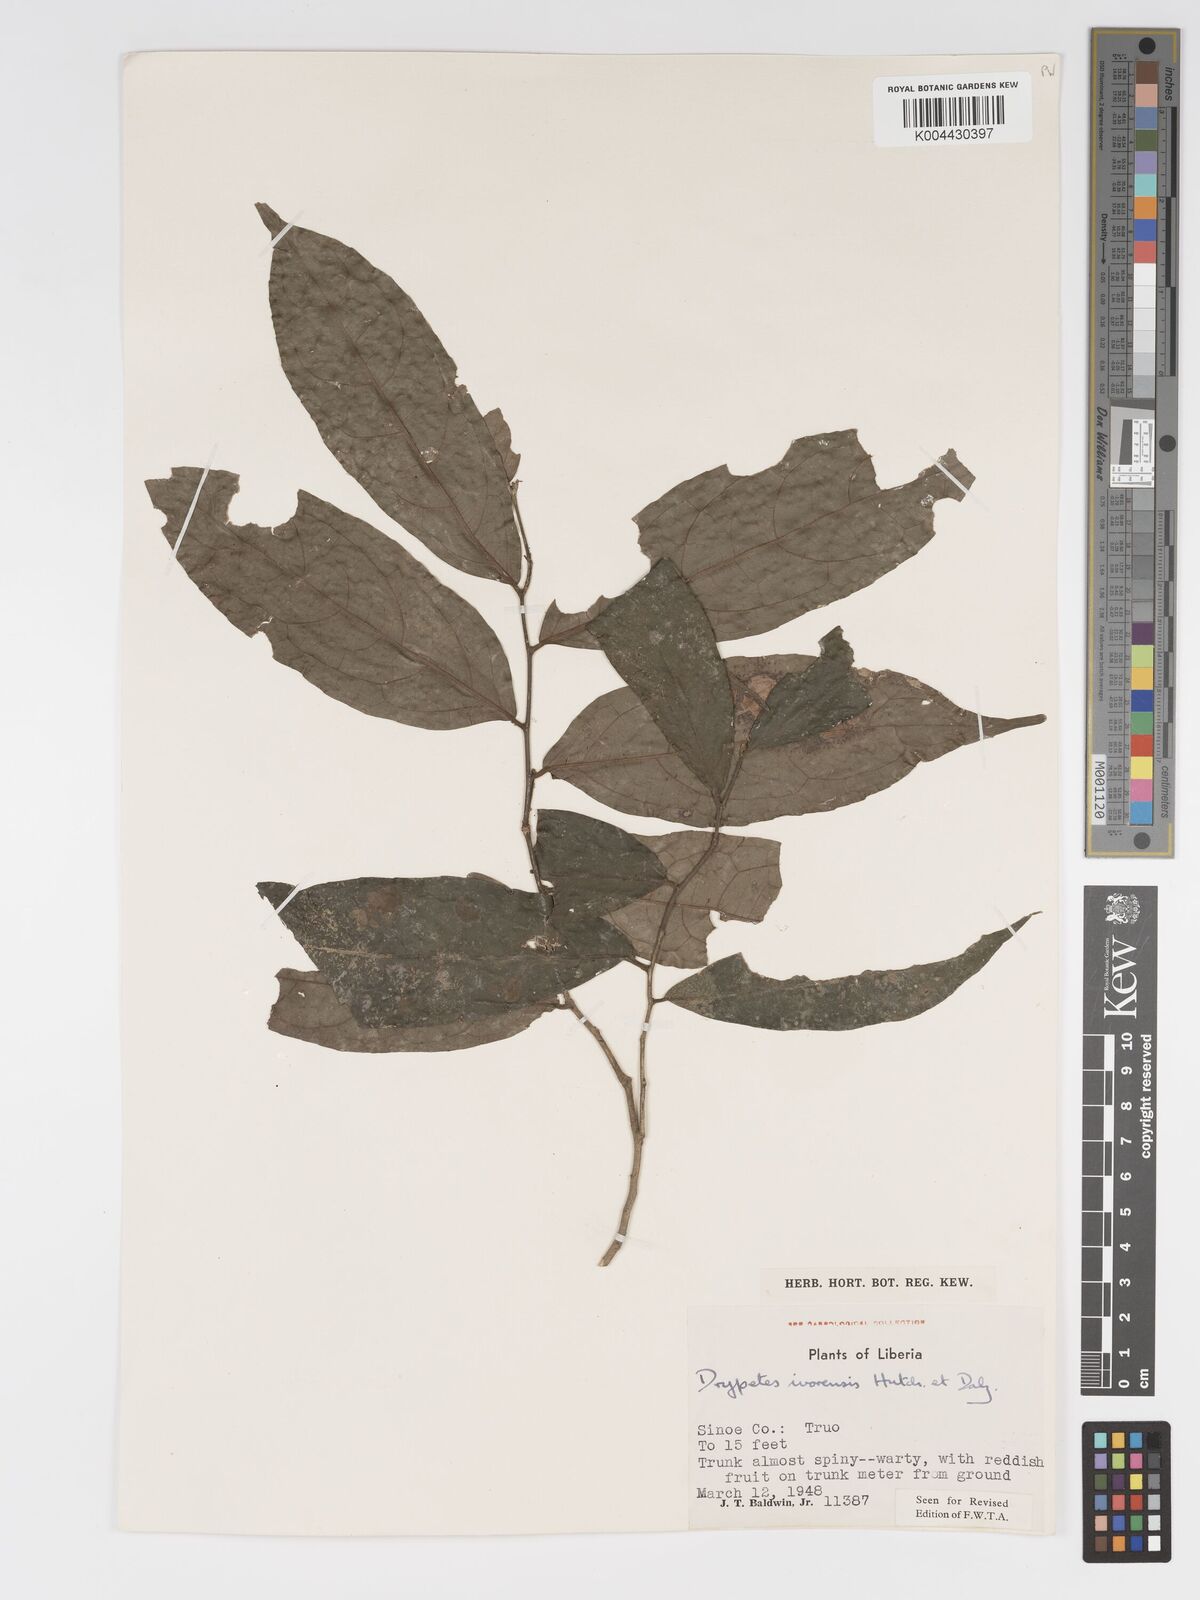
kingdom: Plantae
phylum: Tracheophyta
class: Magnoliopsida
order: Malpighiales
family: Putranjivaceae
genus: Drypetes
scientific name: Drypetes ivorensis
